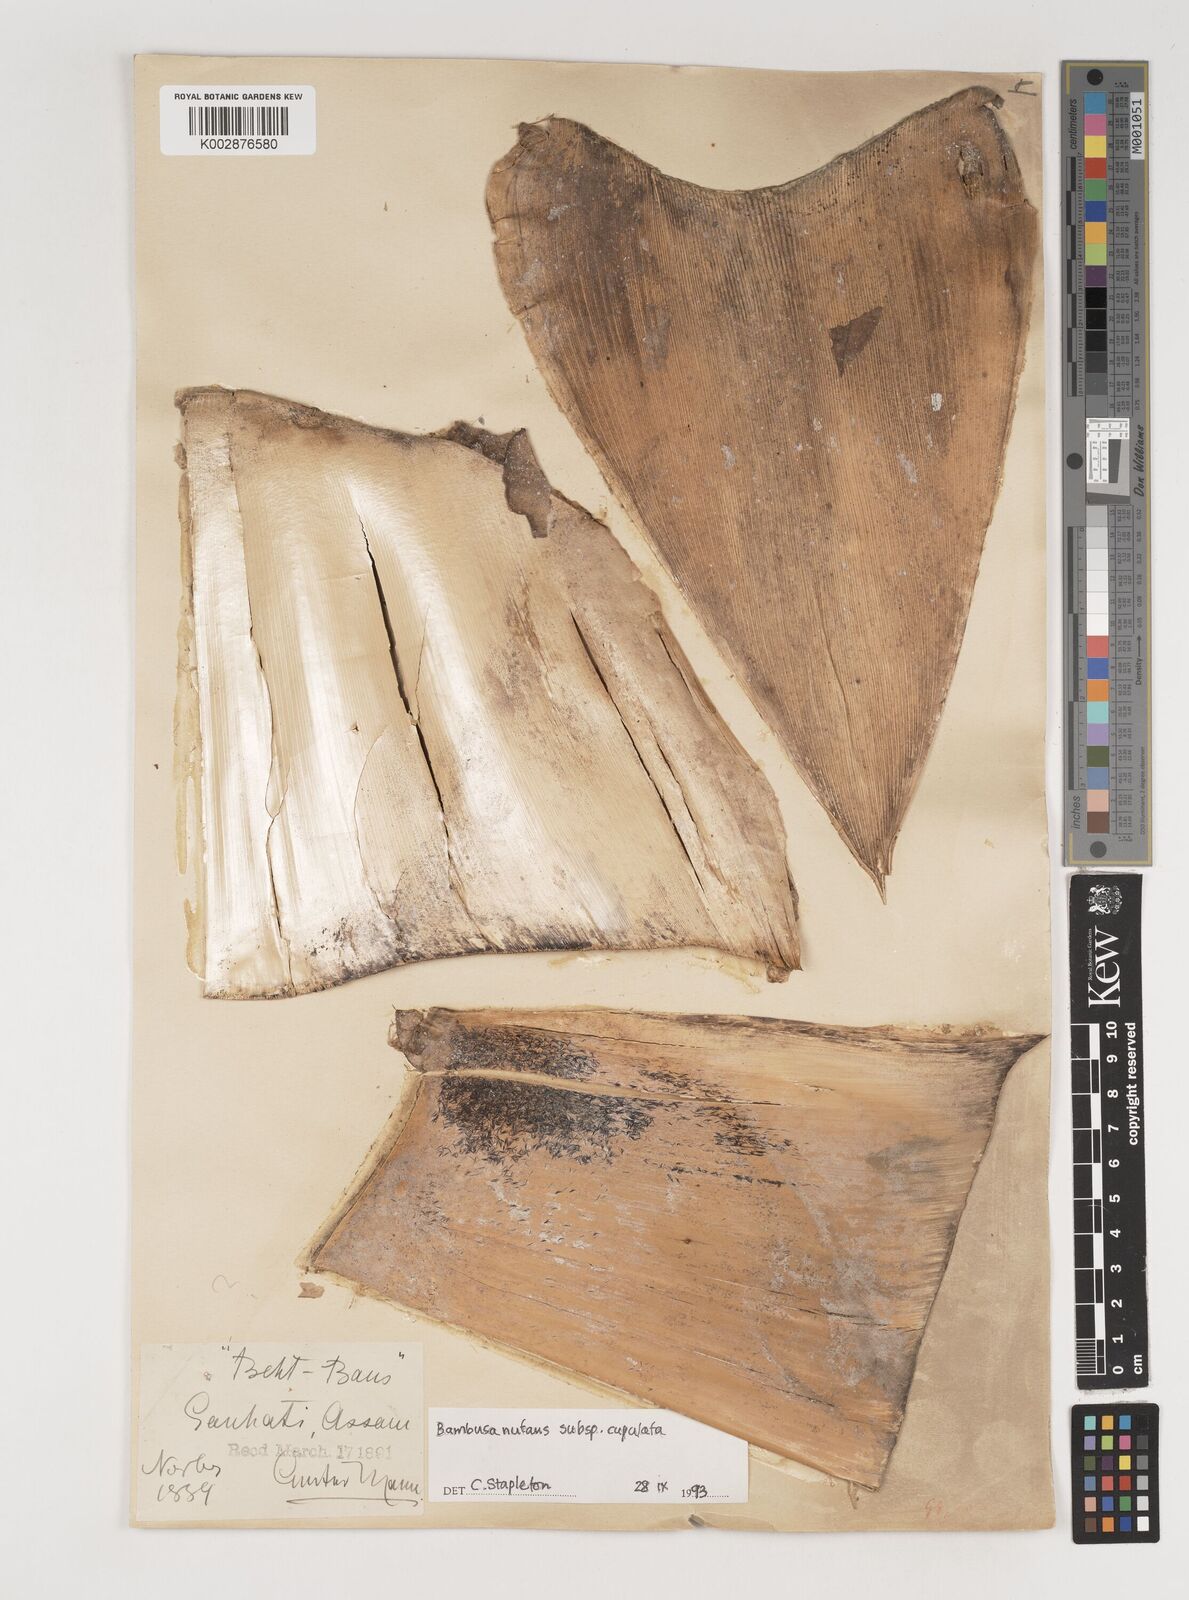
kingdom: Plantae
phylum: Tracheophyta
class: Liliopsida
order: Poales
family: Poaceae
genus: Bambusa
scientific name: Bambusa nutans
